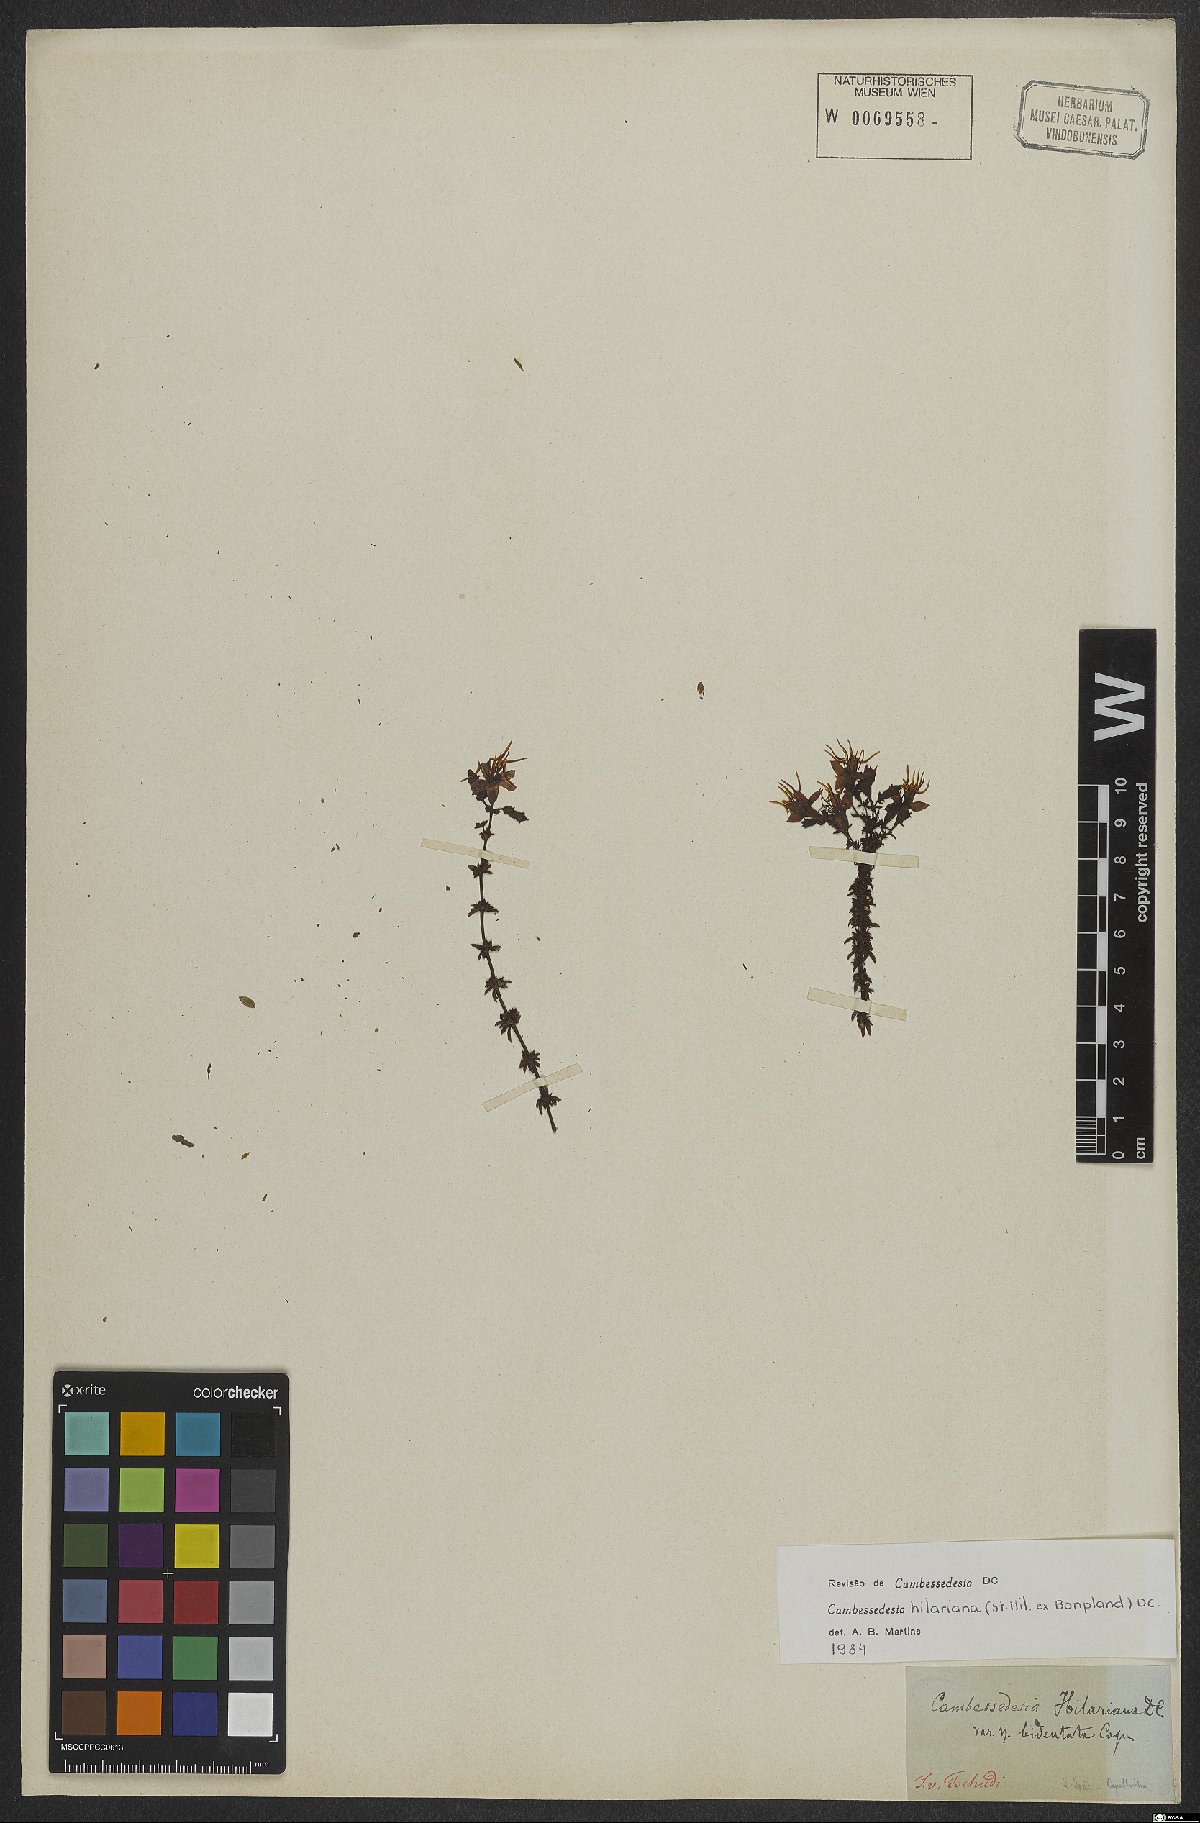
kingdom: Plantae
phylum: Tracheophyta
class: Magnoliopsida
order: Myrtales
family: Melastomataceae
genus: Cambessedesia
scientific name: Cambessedesia hilariana
